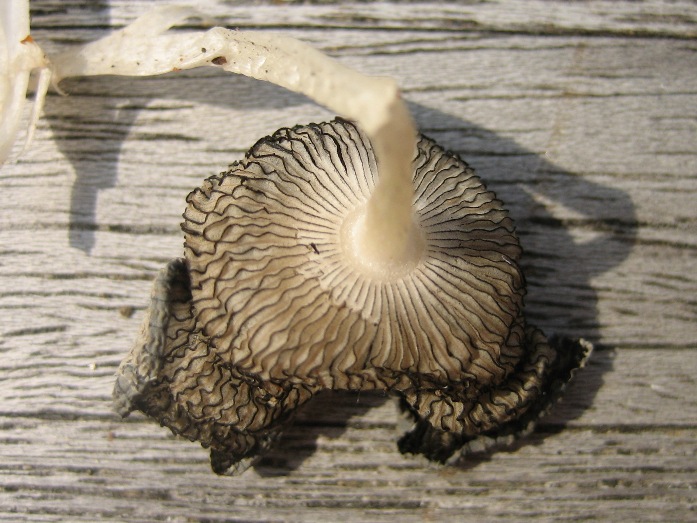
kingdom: Fungi
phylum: Basidiomycota
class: Agaricomycetes
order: Agaricales
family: Psathyrellaceae
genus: Coprinopsis
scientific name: Coprinopsis lagopus
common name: dunstokket blækhat
